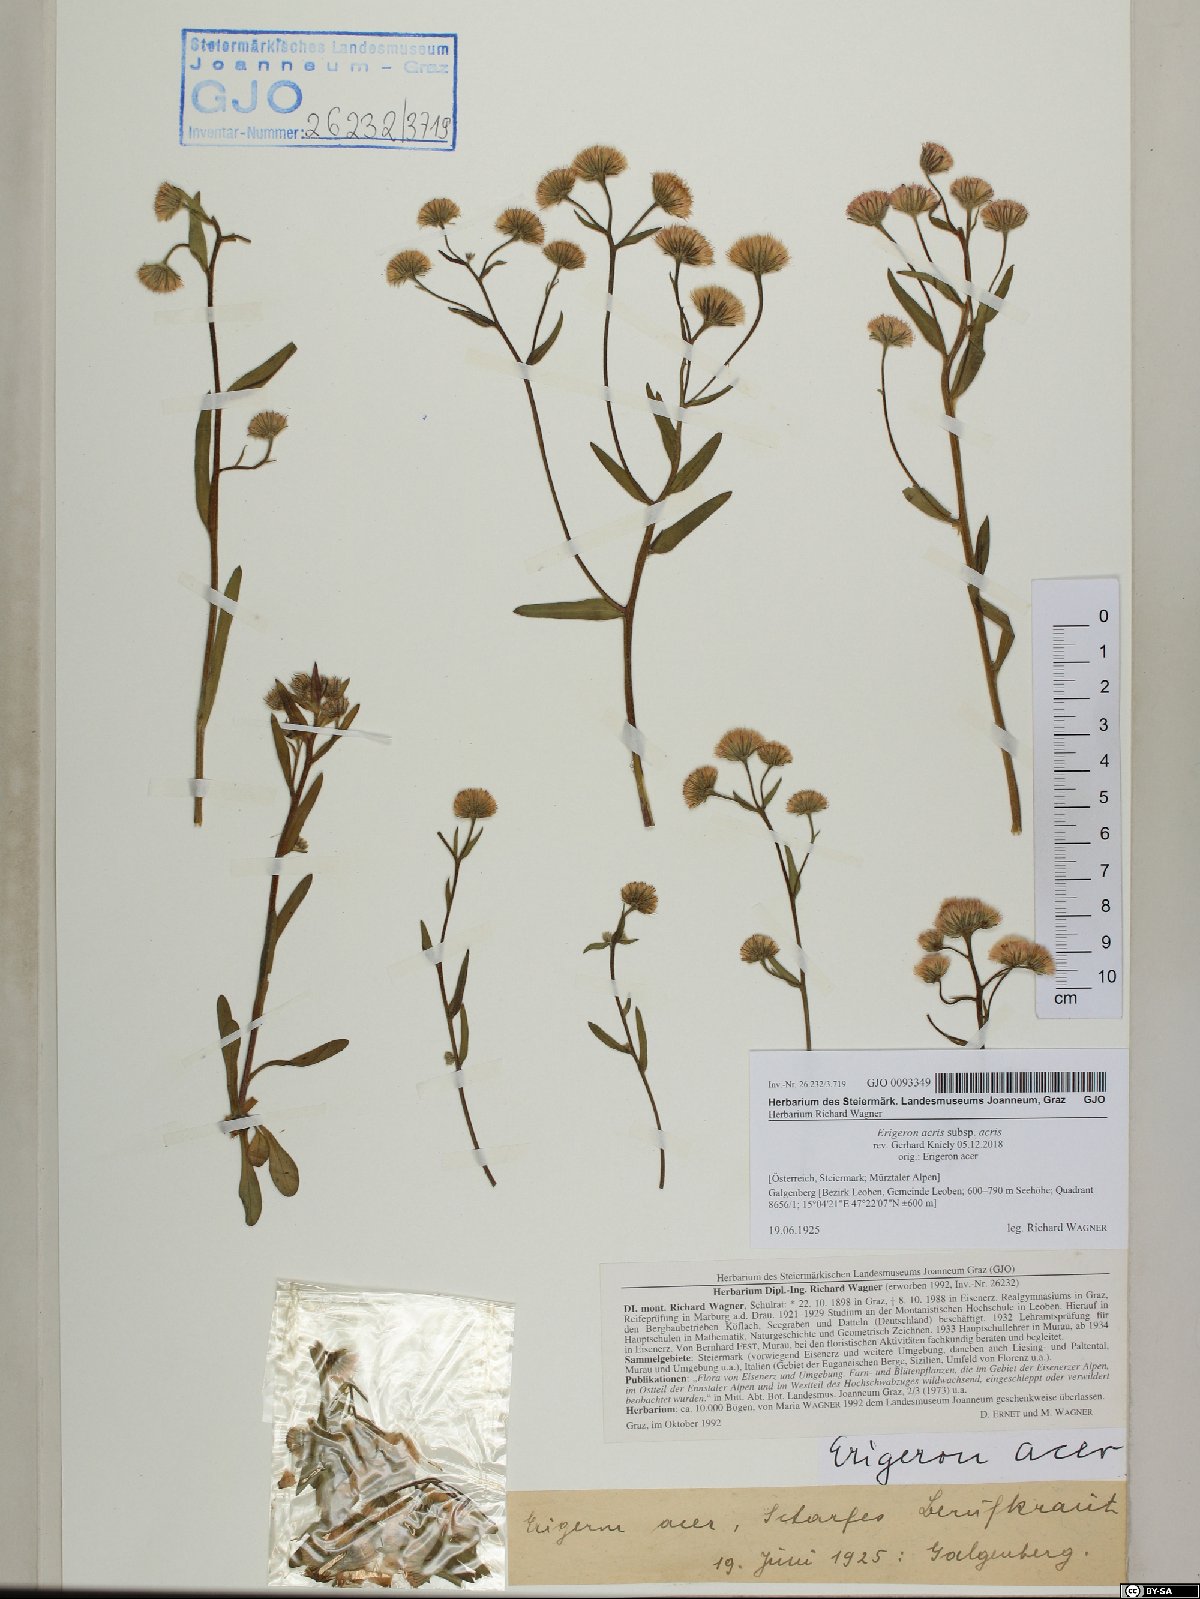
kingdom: Plantae
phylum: Tracheophyta
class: Magnoliopsida
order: Asterales
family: Asteraceae
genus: Erigeron
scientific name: Erigeron acris
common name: Blue fleabane
